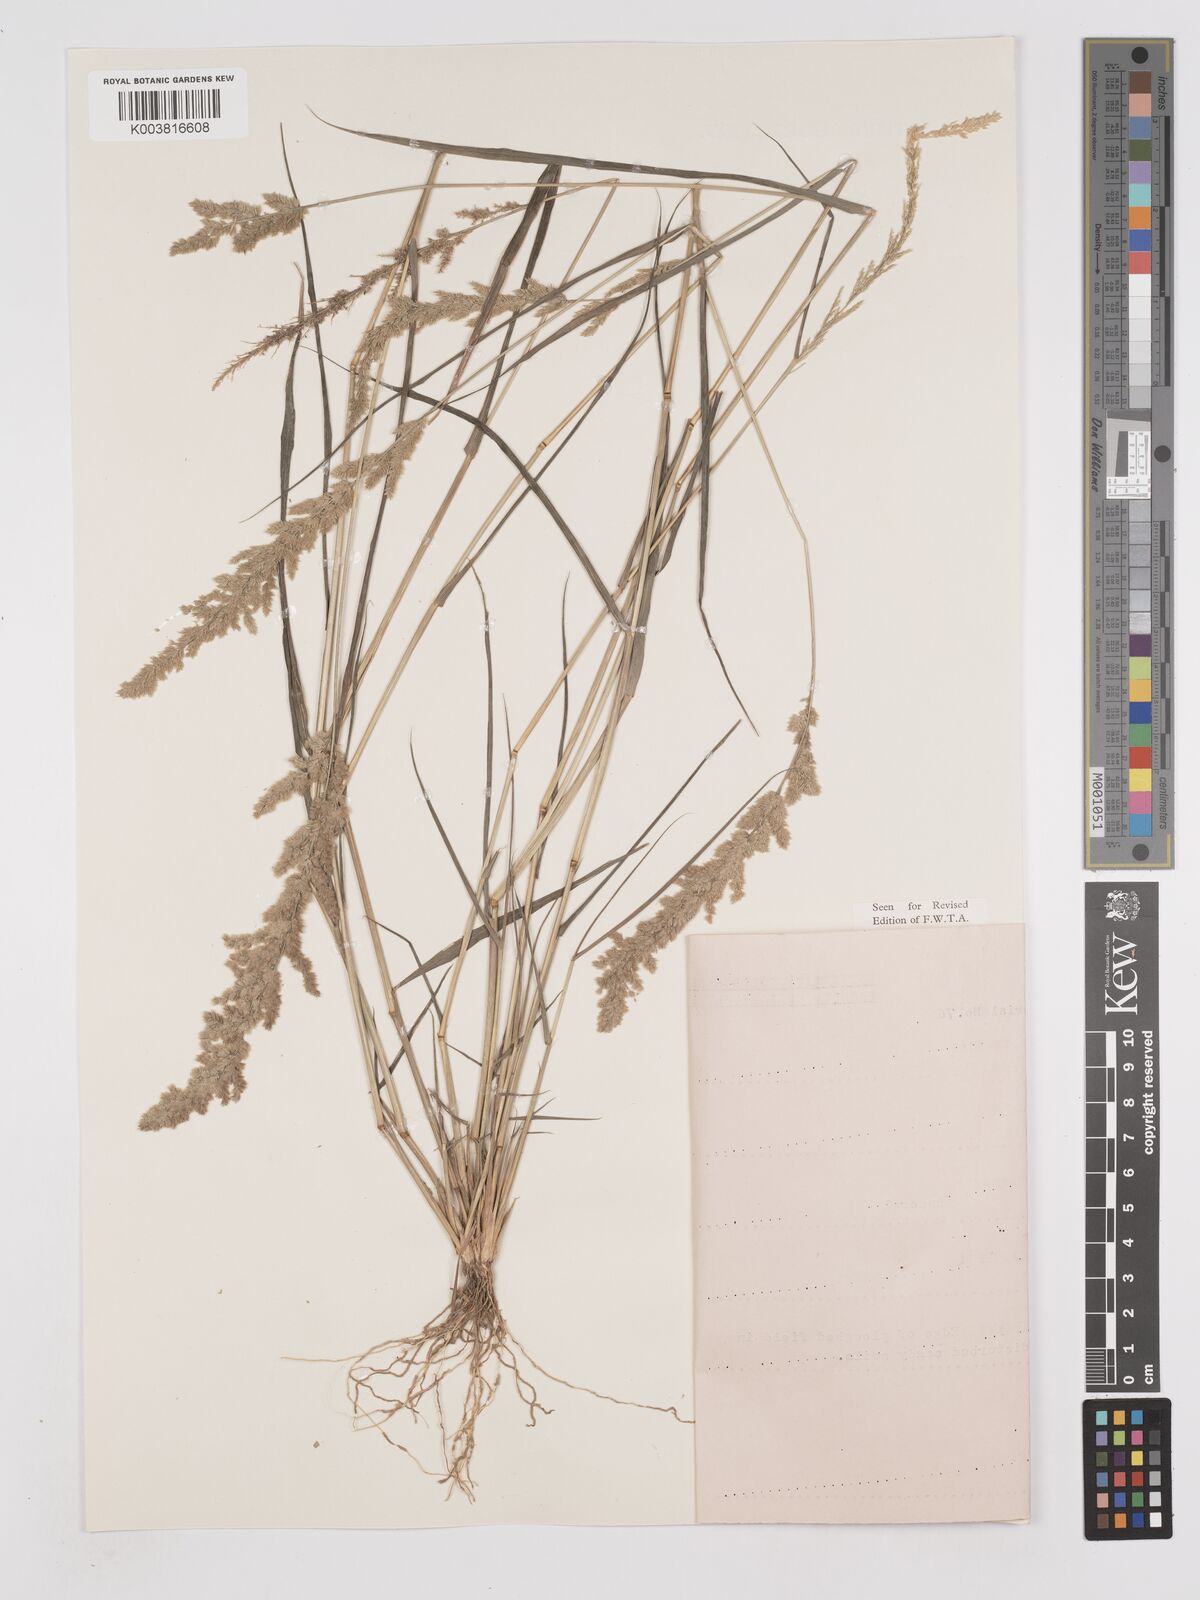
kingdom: Plantae
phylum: Tracheophyta
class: Liliopsida
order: Poales
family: Poaceae
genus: Eragrostis
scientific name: Eragrostis ciliaris
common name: Gophertail lovegrass
